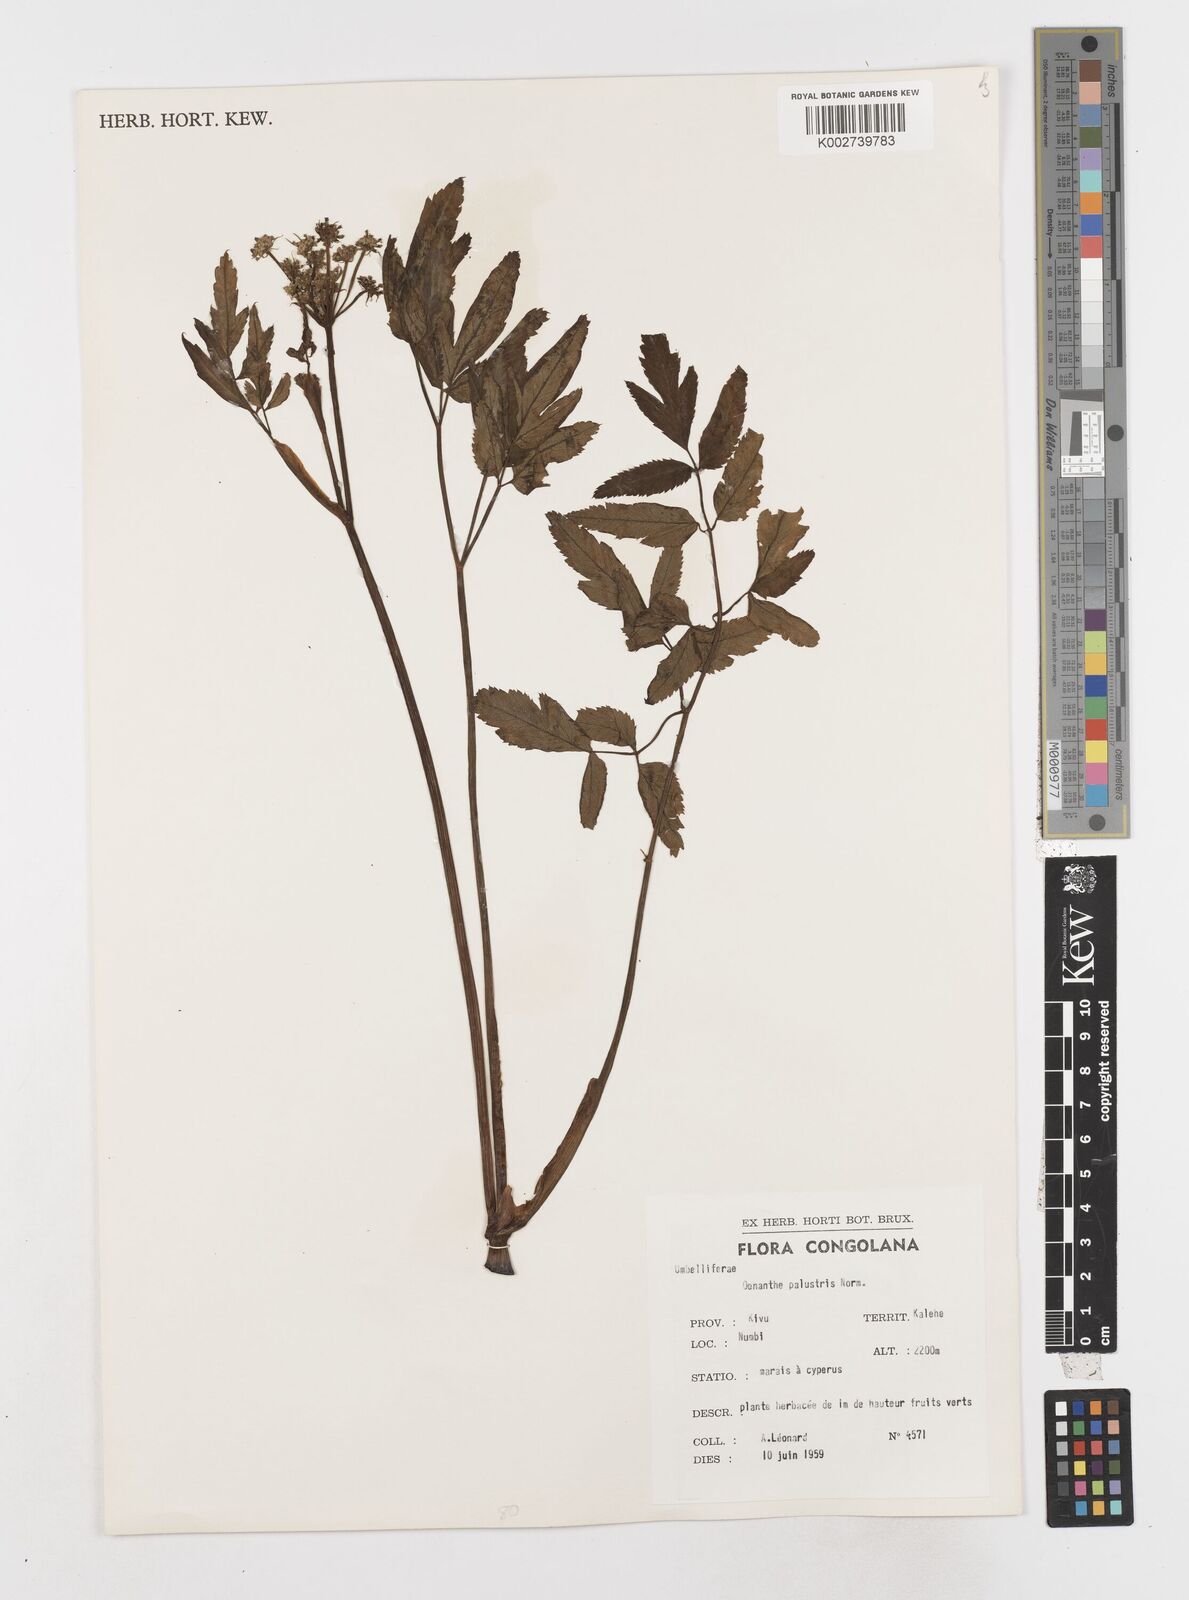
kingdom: Plantae
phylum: Tracheophyta
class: Magnoliopsida
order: Apiales
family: Apiaceae
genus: Oenanthe
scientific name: Oenanthe palustris
